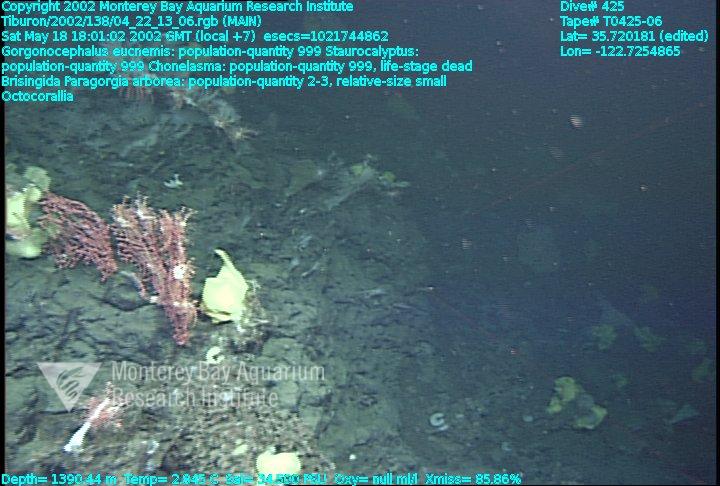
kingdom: Animalia
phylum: Porifera
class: Hexactinellida
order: Lyssacinosida
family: Rossellidae
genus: Staurocalyptus
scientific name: Staurocalyptus
